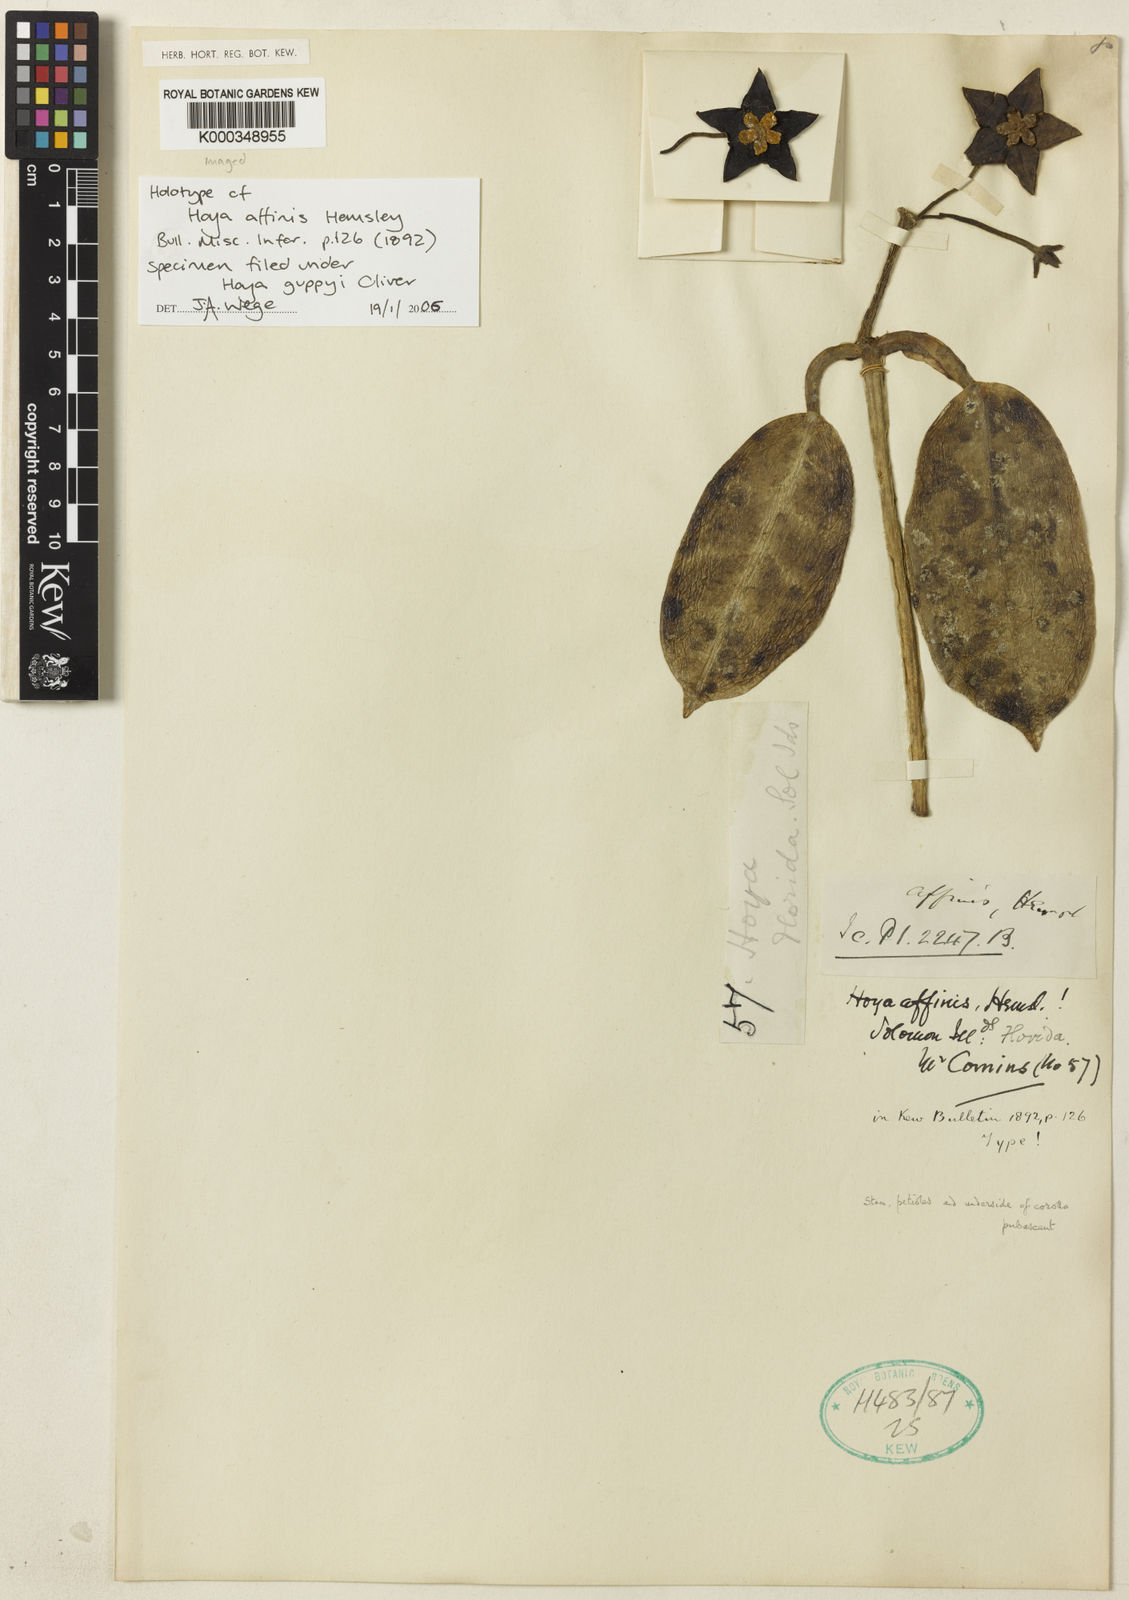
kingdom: Plantae
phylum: Tracheophyta
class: Magnoliopsida
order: Gentianales
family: Apocynaceae
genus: Eriostemma
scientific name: Eriostemma guppyi
